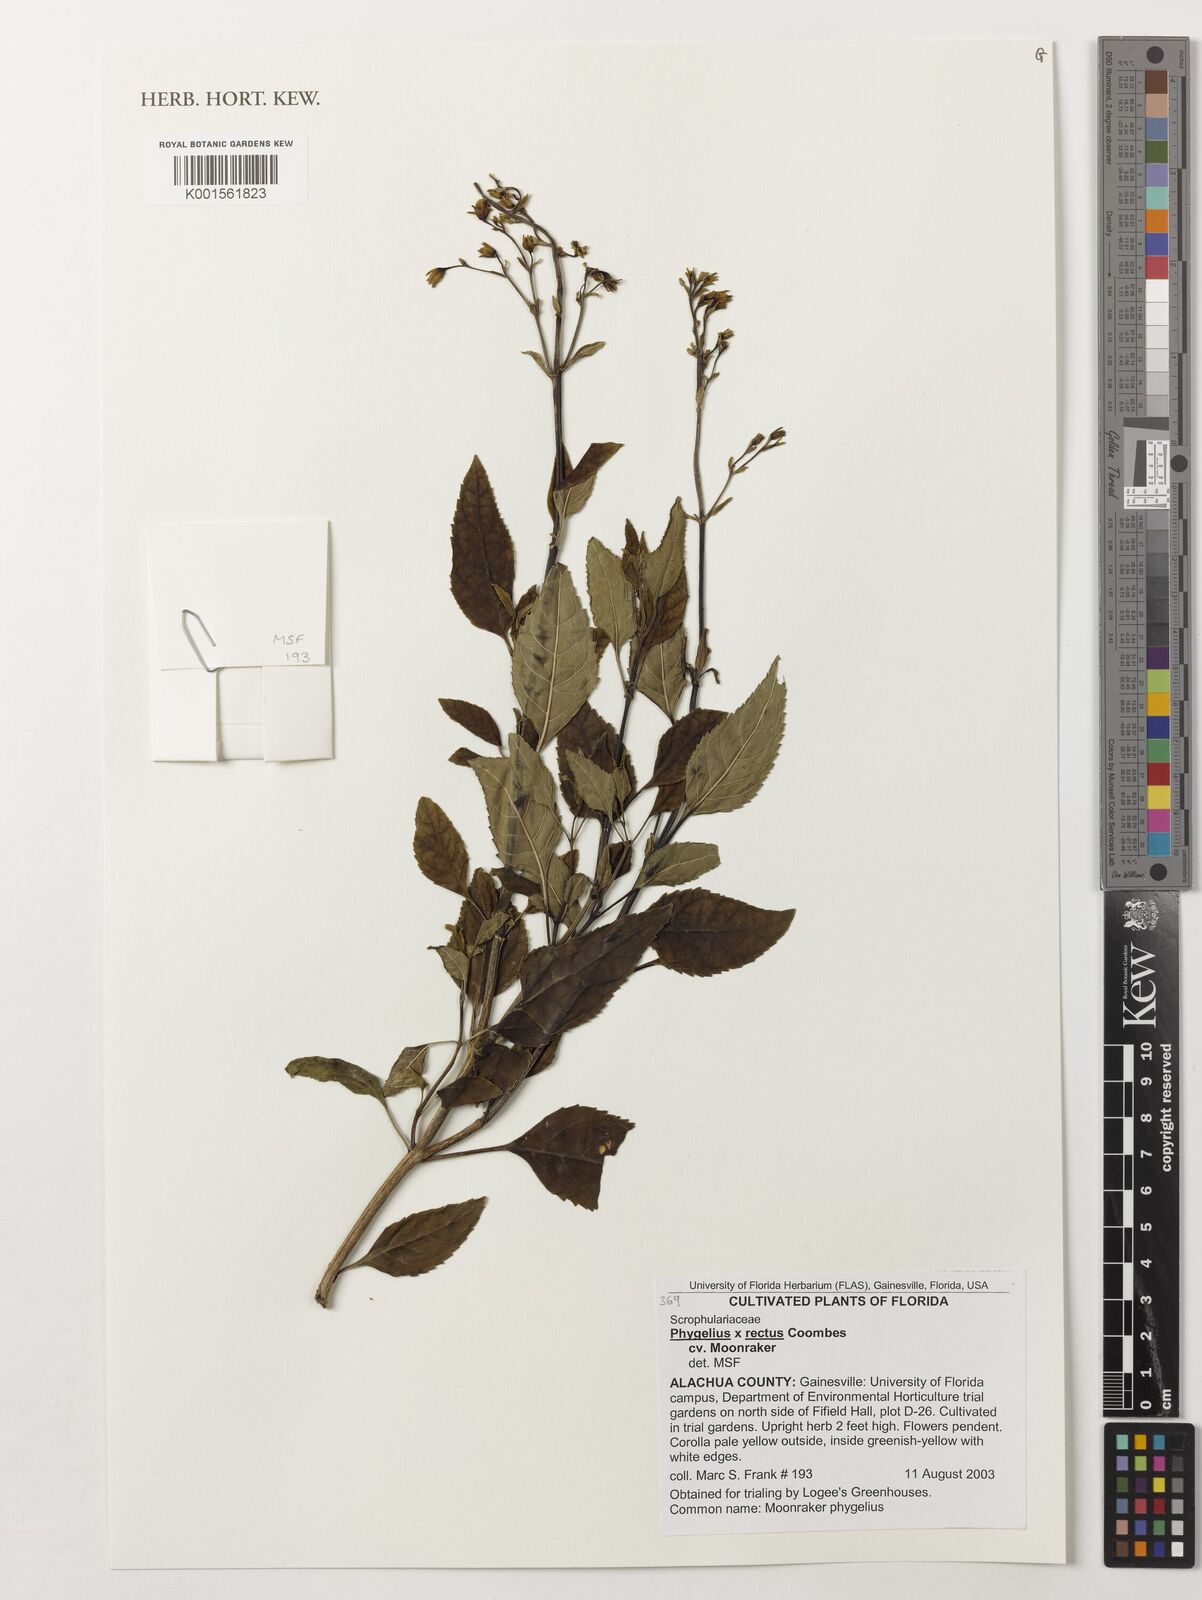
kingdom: Plantae
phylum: Tracheophyta
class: Magnoliopsida
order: Lamiales
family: Scrophulariaceae
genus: Phygelius
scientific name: Phygelius
